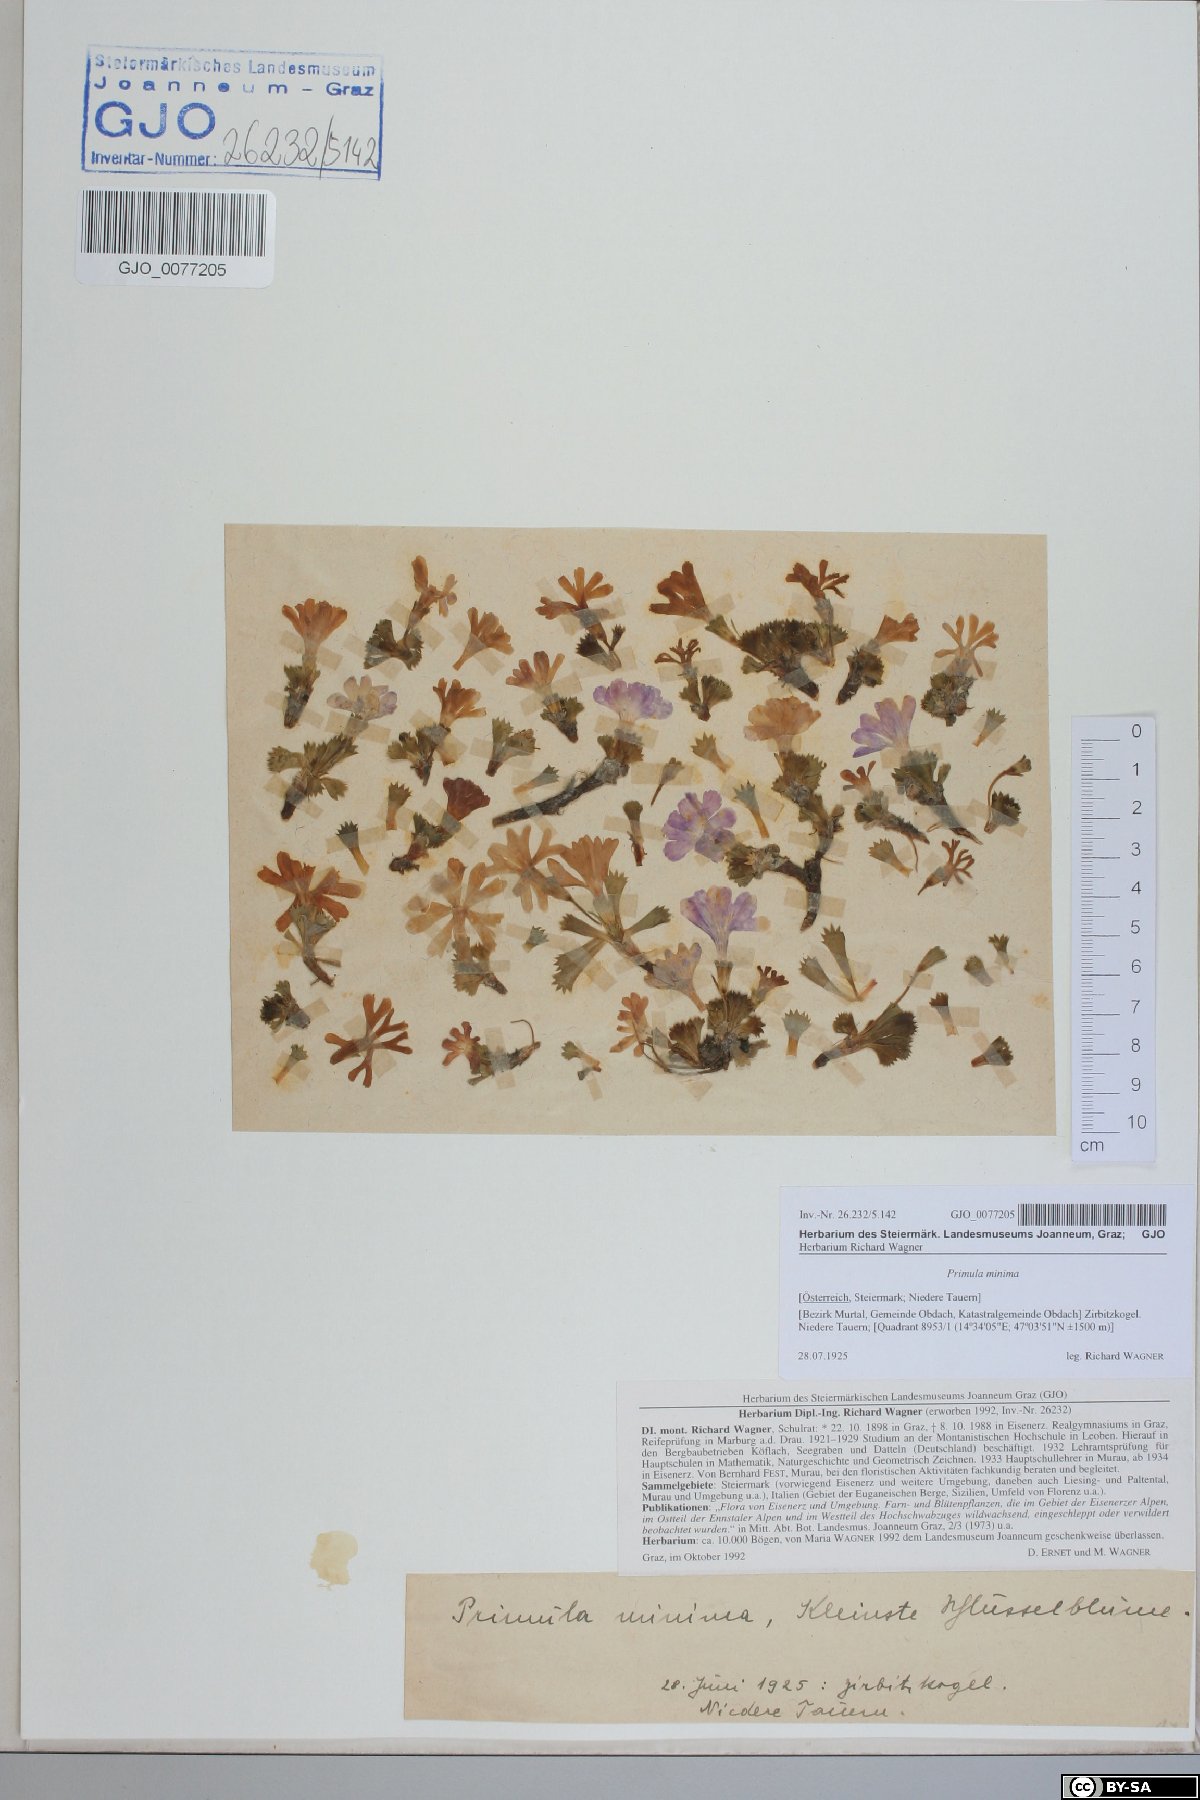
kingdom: Plantae
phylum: Tracheophyta
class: Magnoliopsida
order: Ericales
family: Primulaceae
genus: Primula
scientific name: Primula minima
